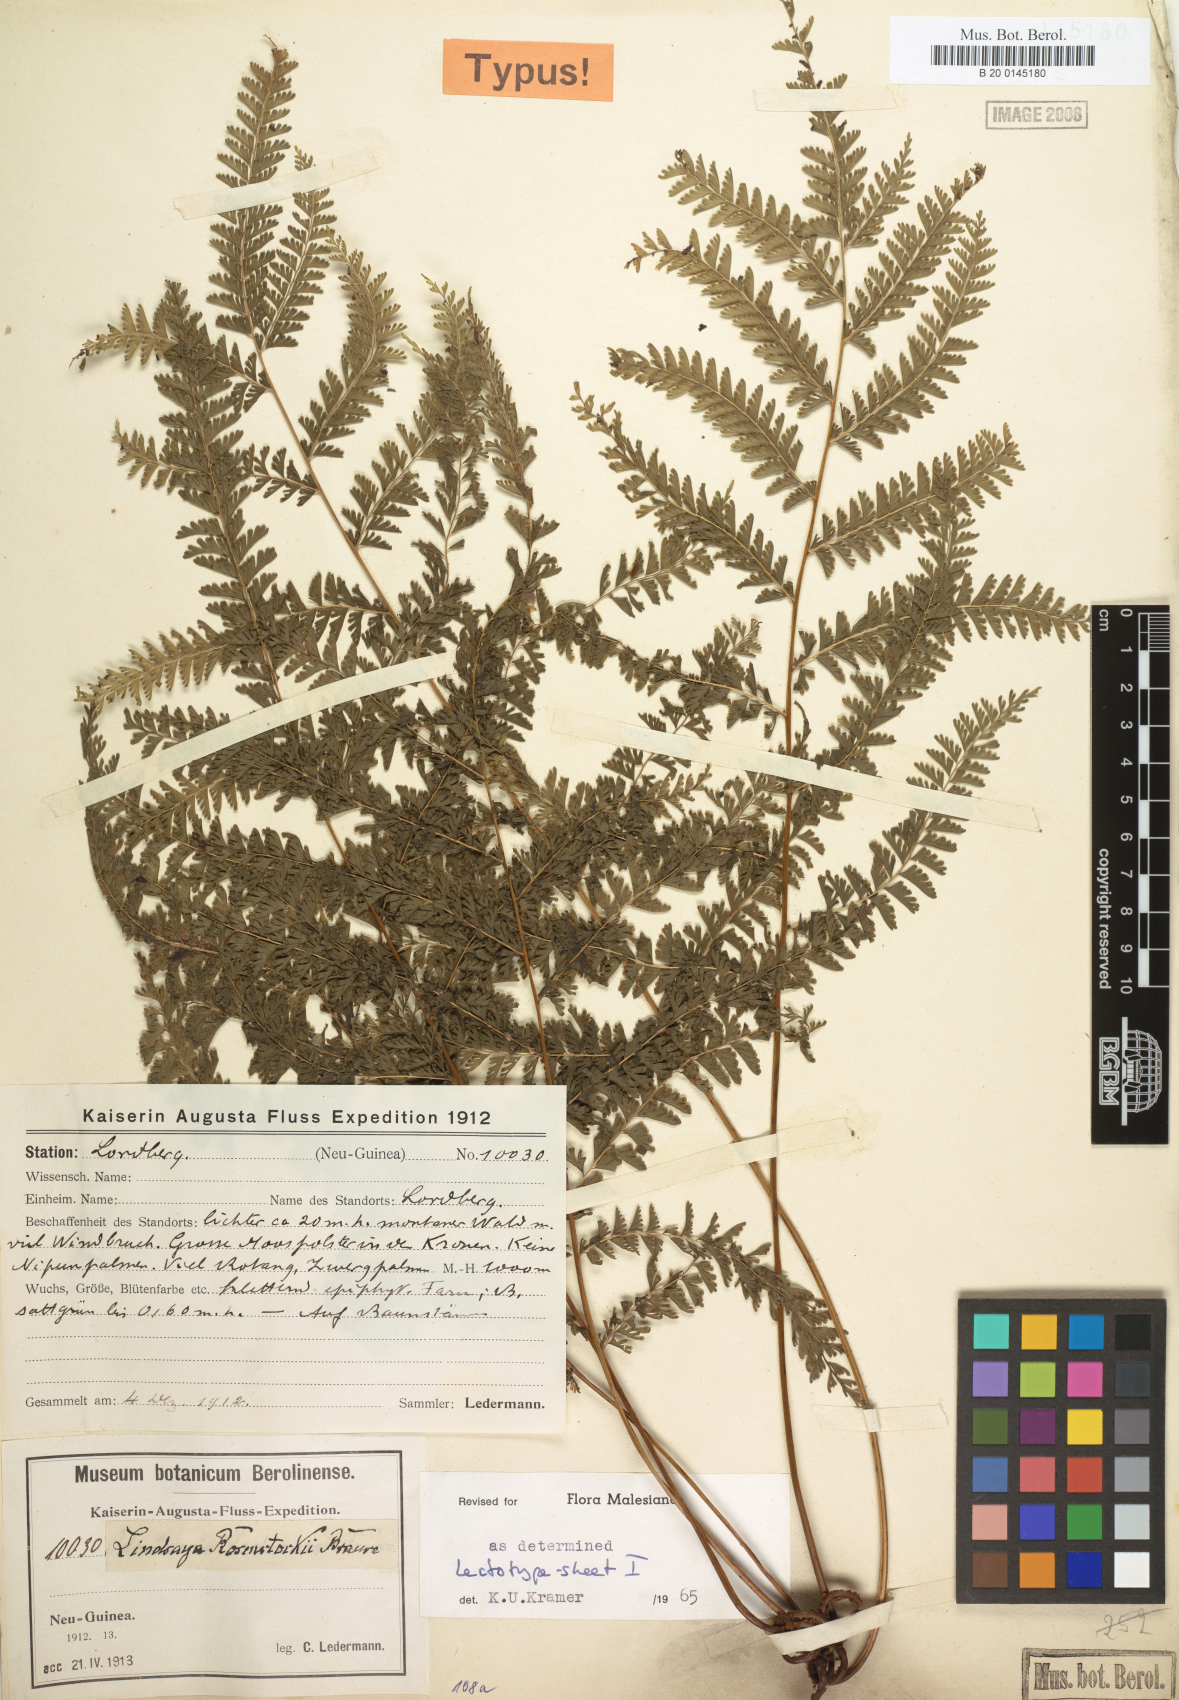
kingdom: Plantae
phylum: Tracheophyta
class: Polypodiopsida
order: Polypodiales
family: Lindsaeaceae
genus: Lindsaea
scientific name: Lindsaea rosenstockii
